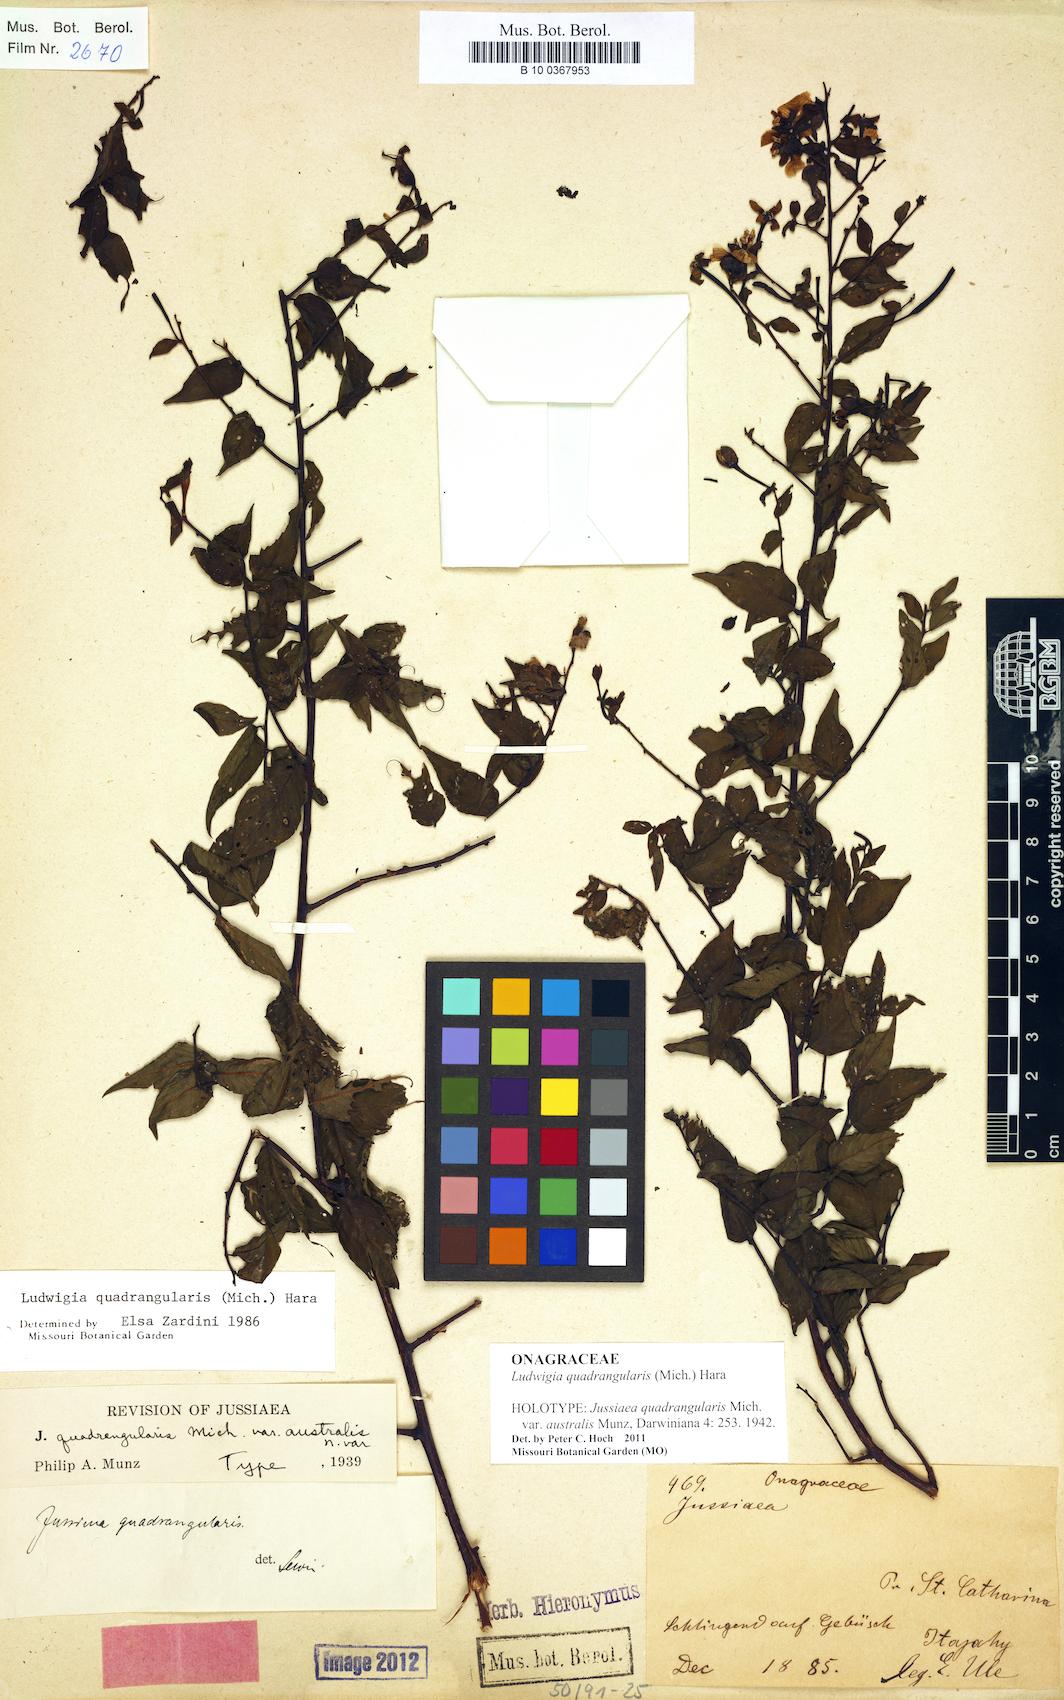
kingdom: Plantae
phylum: Tracheophyta
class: Magnoliopsida
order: Myrtales
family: Onagraceae
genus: Ludwigia
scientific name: Ludwigia quadrangularis
